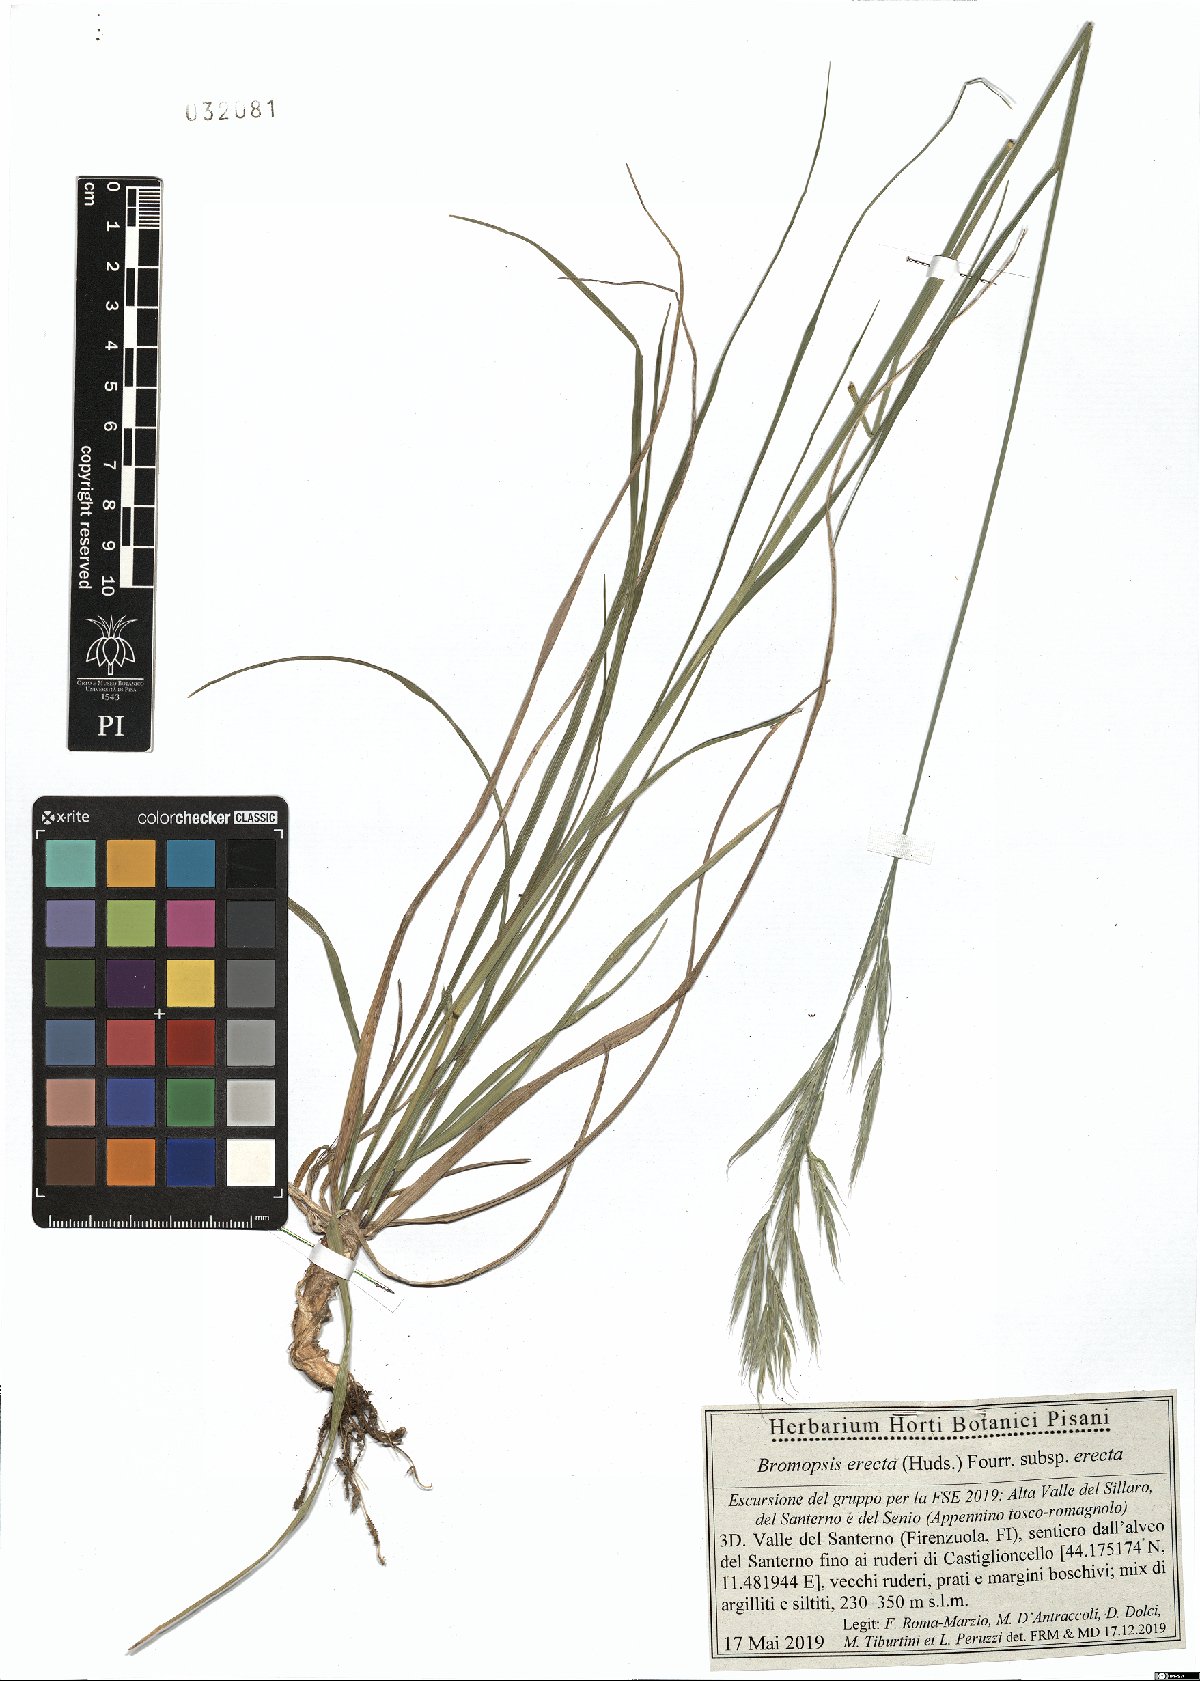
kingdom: Plantae
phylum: Tracheophyta
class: Liliopsida
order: Poales
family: Poaceae
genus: Bromus
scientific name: Bromus
